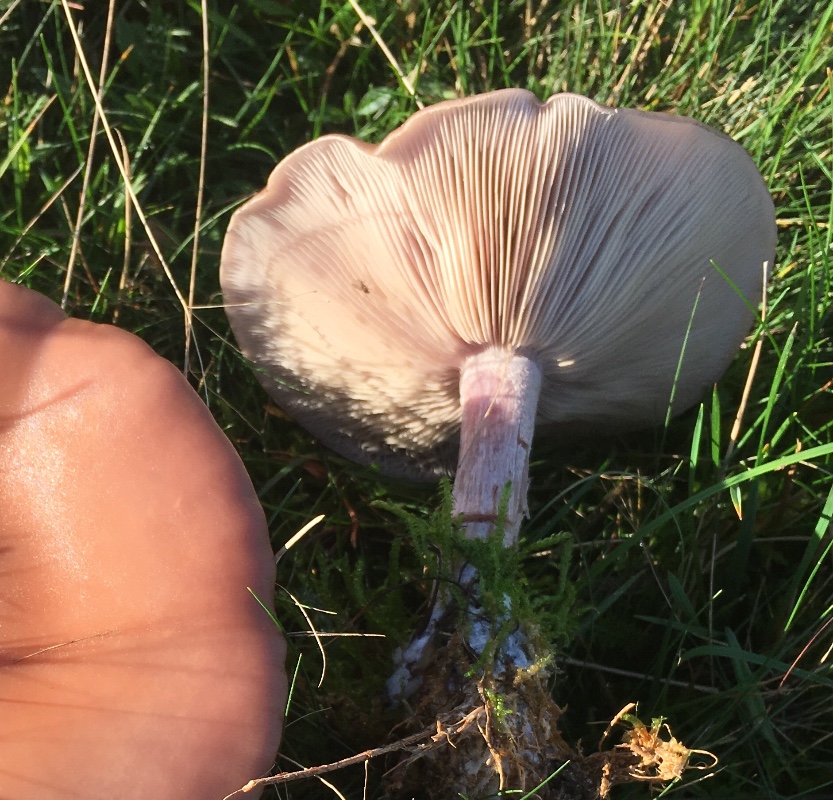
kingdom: Fungi
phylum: Basidiomycota
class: Agaricomycetes
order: Agaricales
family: Tricholomataceae
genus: Lepista
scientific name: Lepista nuda
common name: violet hekseringshat
